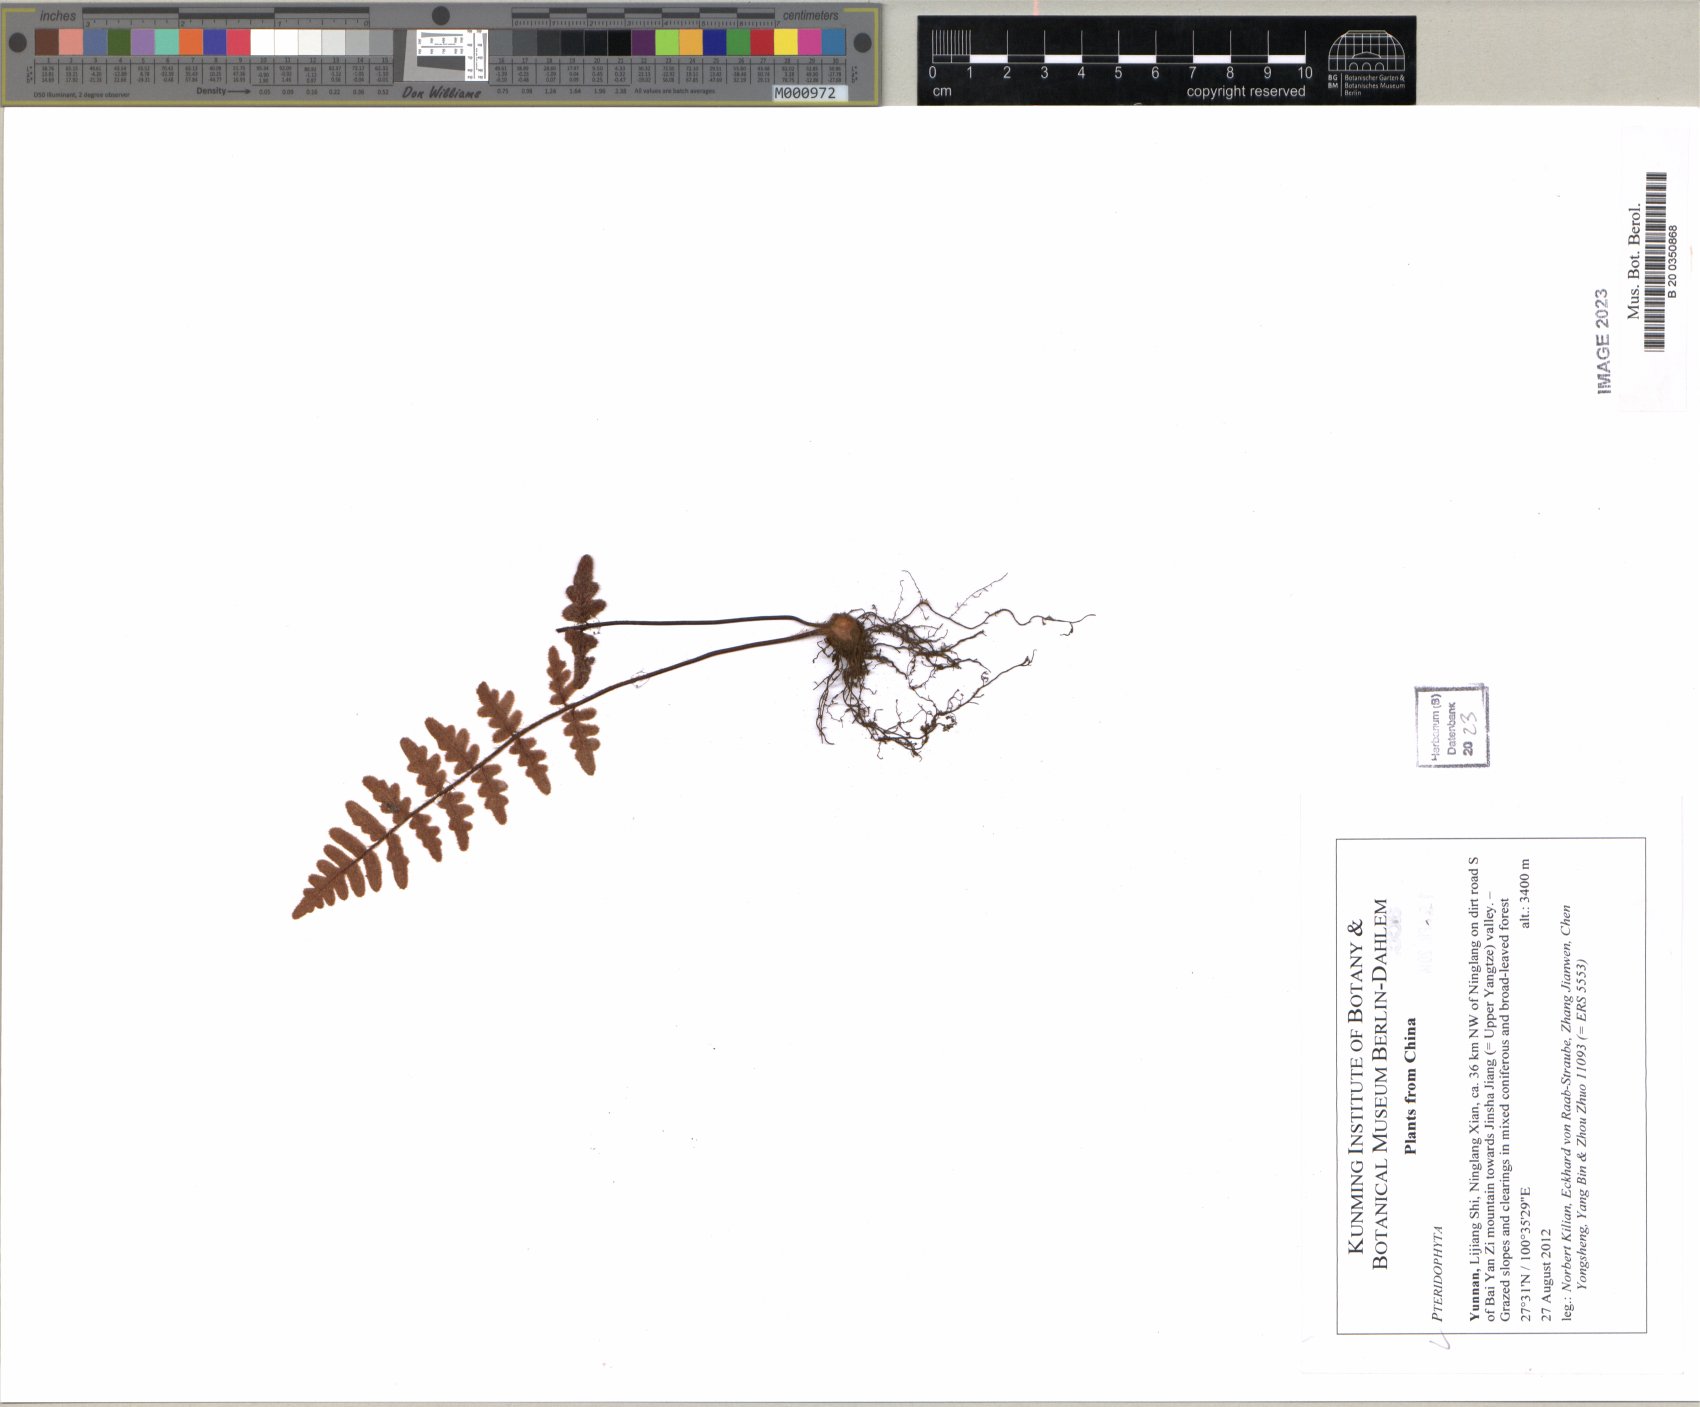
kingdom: Plantae
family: Pteridophyta
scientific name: Pteridophyta
